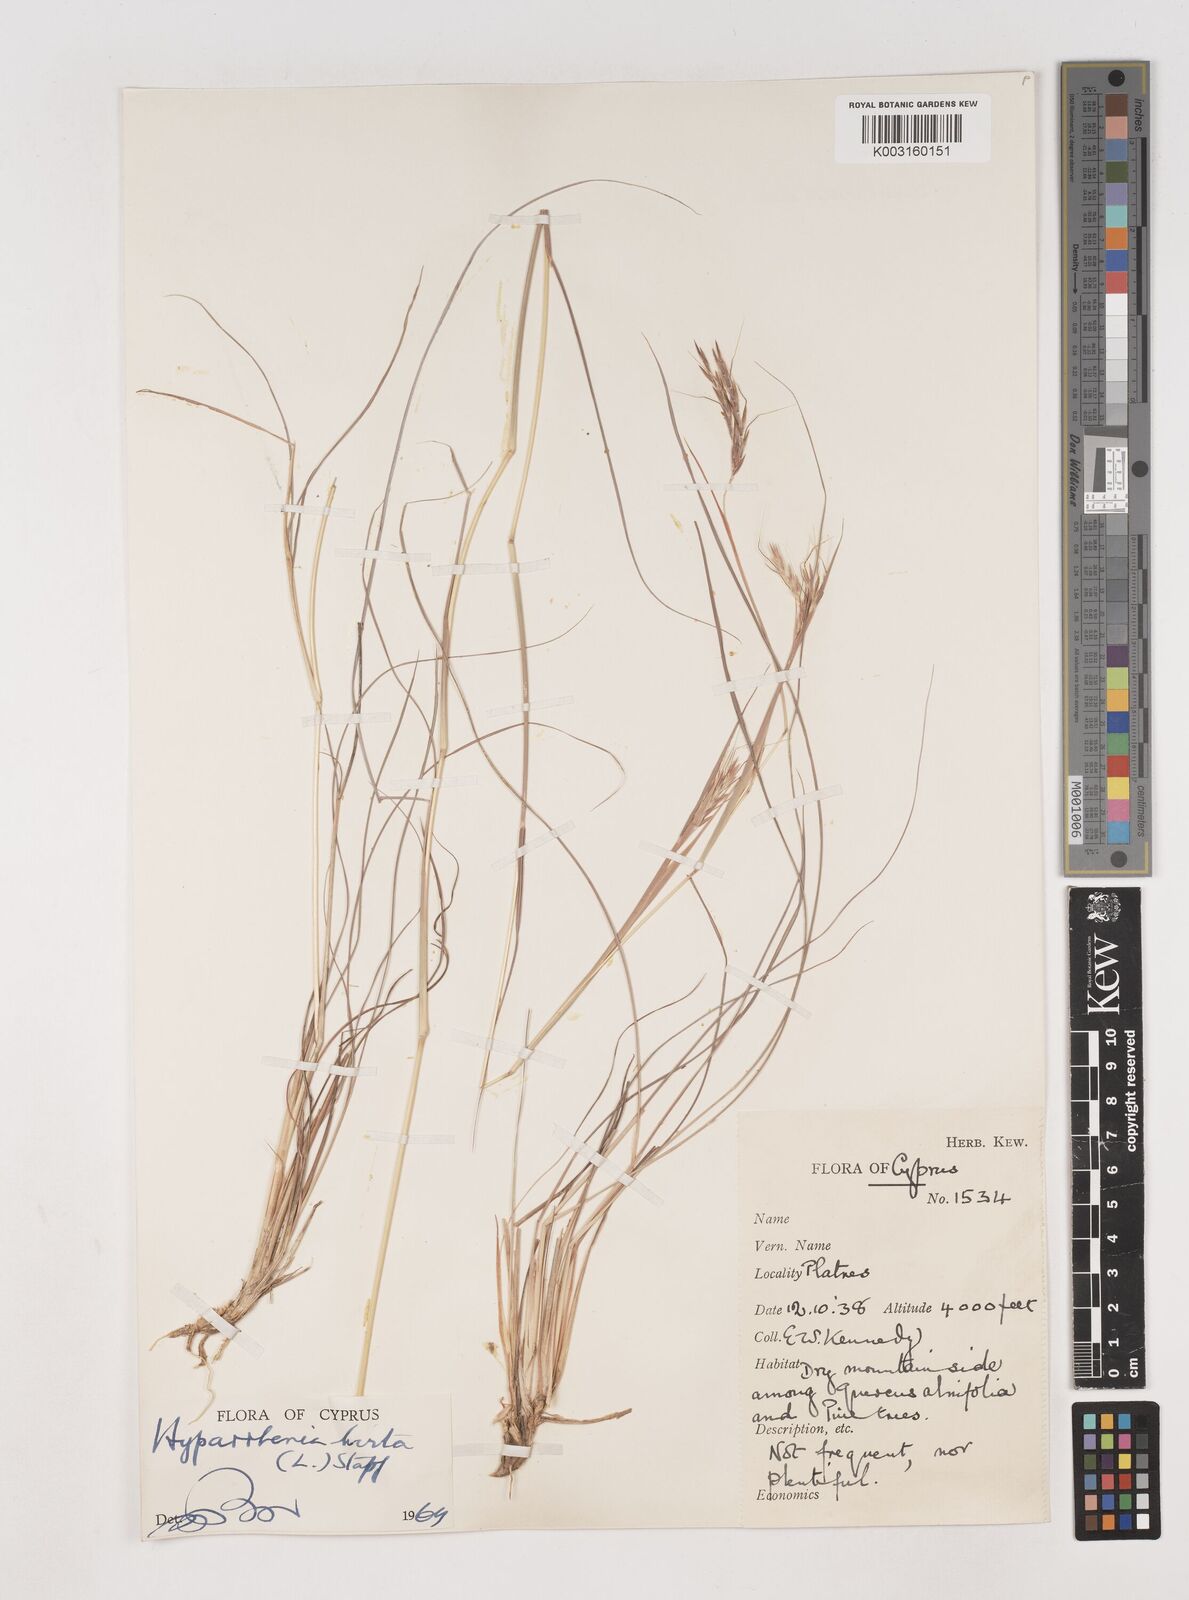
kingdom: Plantae
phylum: Tracheophyta
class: Liliopsida
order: Poales
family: Poaceae
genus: Hyparrhenia
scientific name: Hyparrhenia hirta
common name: Thatching grass
